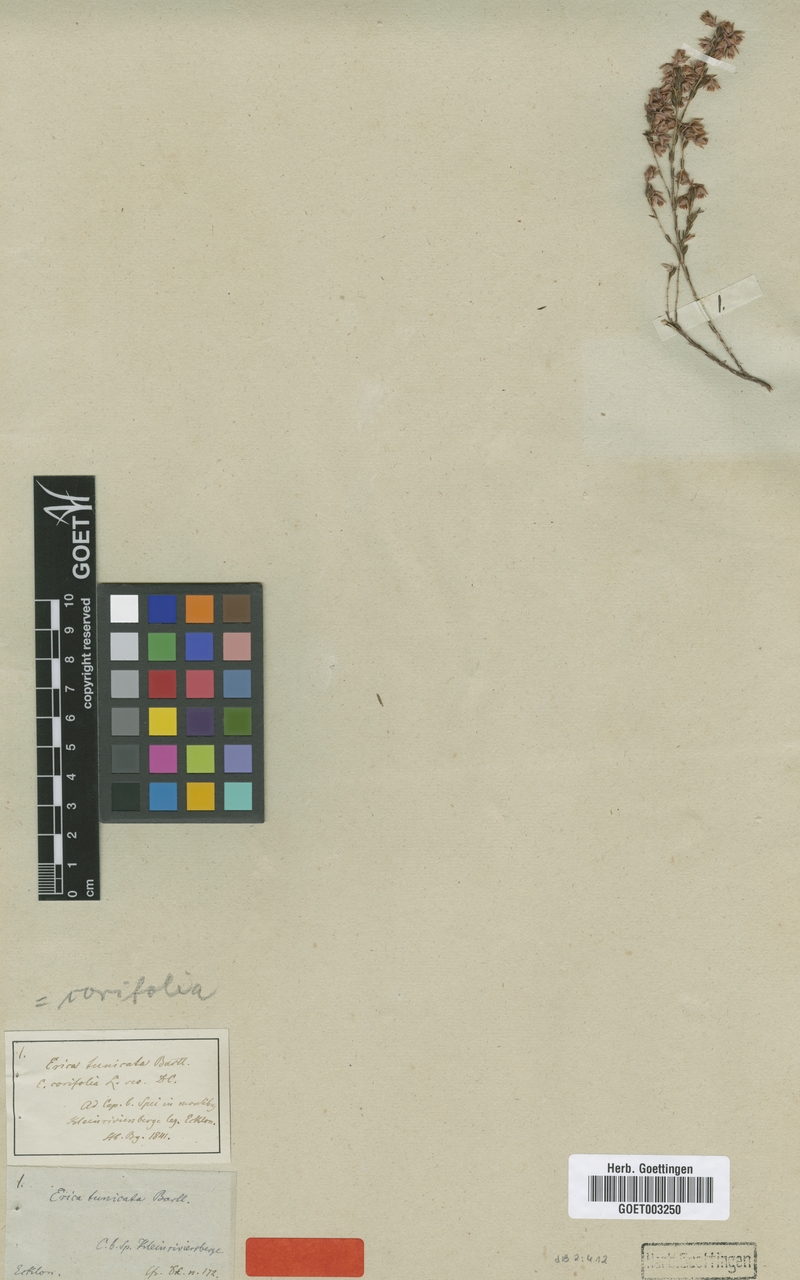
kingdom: Plantae
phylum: Tracheophyta
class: Magnoliopsida
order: Ericales
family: Ericaceae
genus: Erica
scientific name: Erica corifolia
